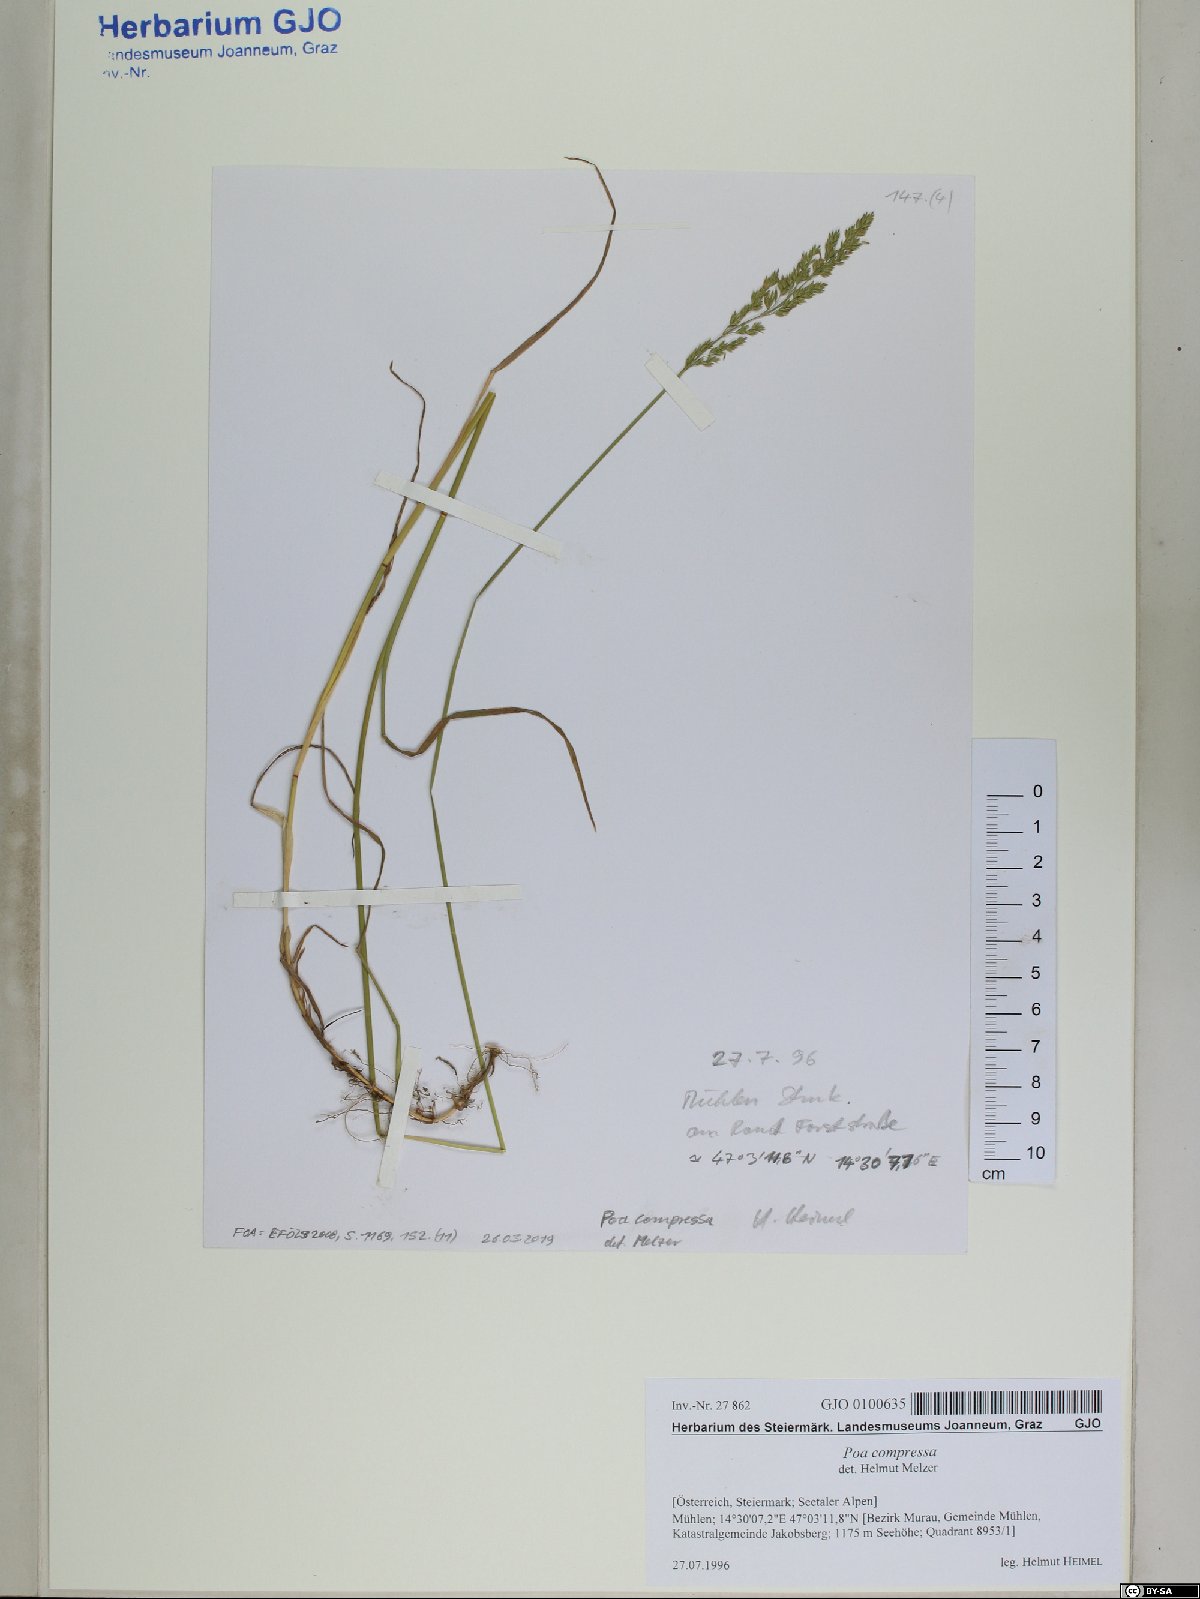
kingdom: Plantae
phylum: Tracheophyta
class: Liliopsida
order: Poales
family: Poaceae
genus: Poa
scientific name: Poa compressa
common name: Canada bluegrass
